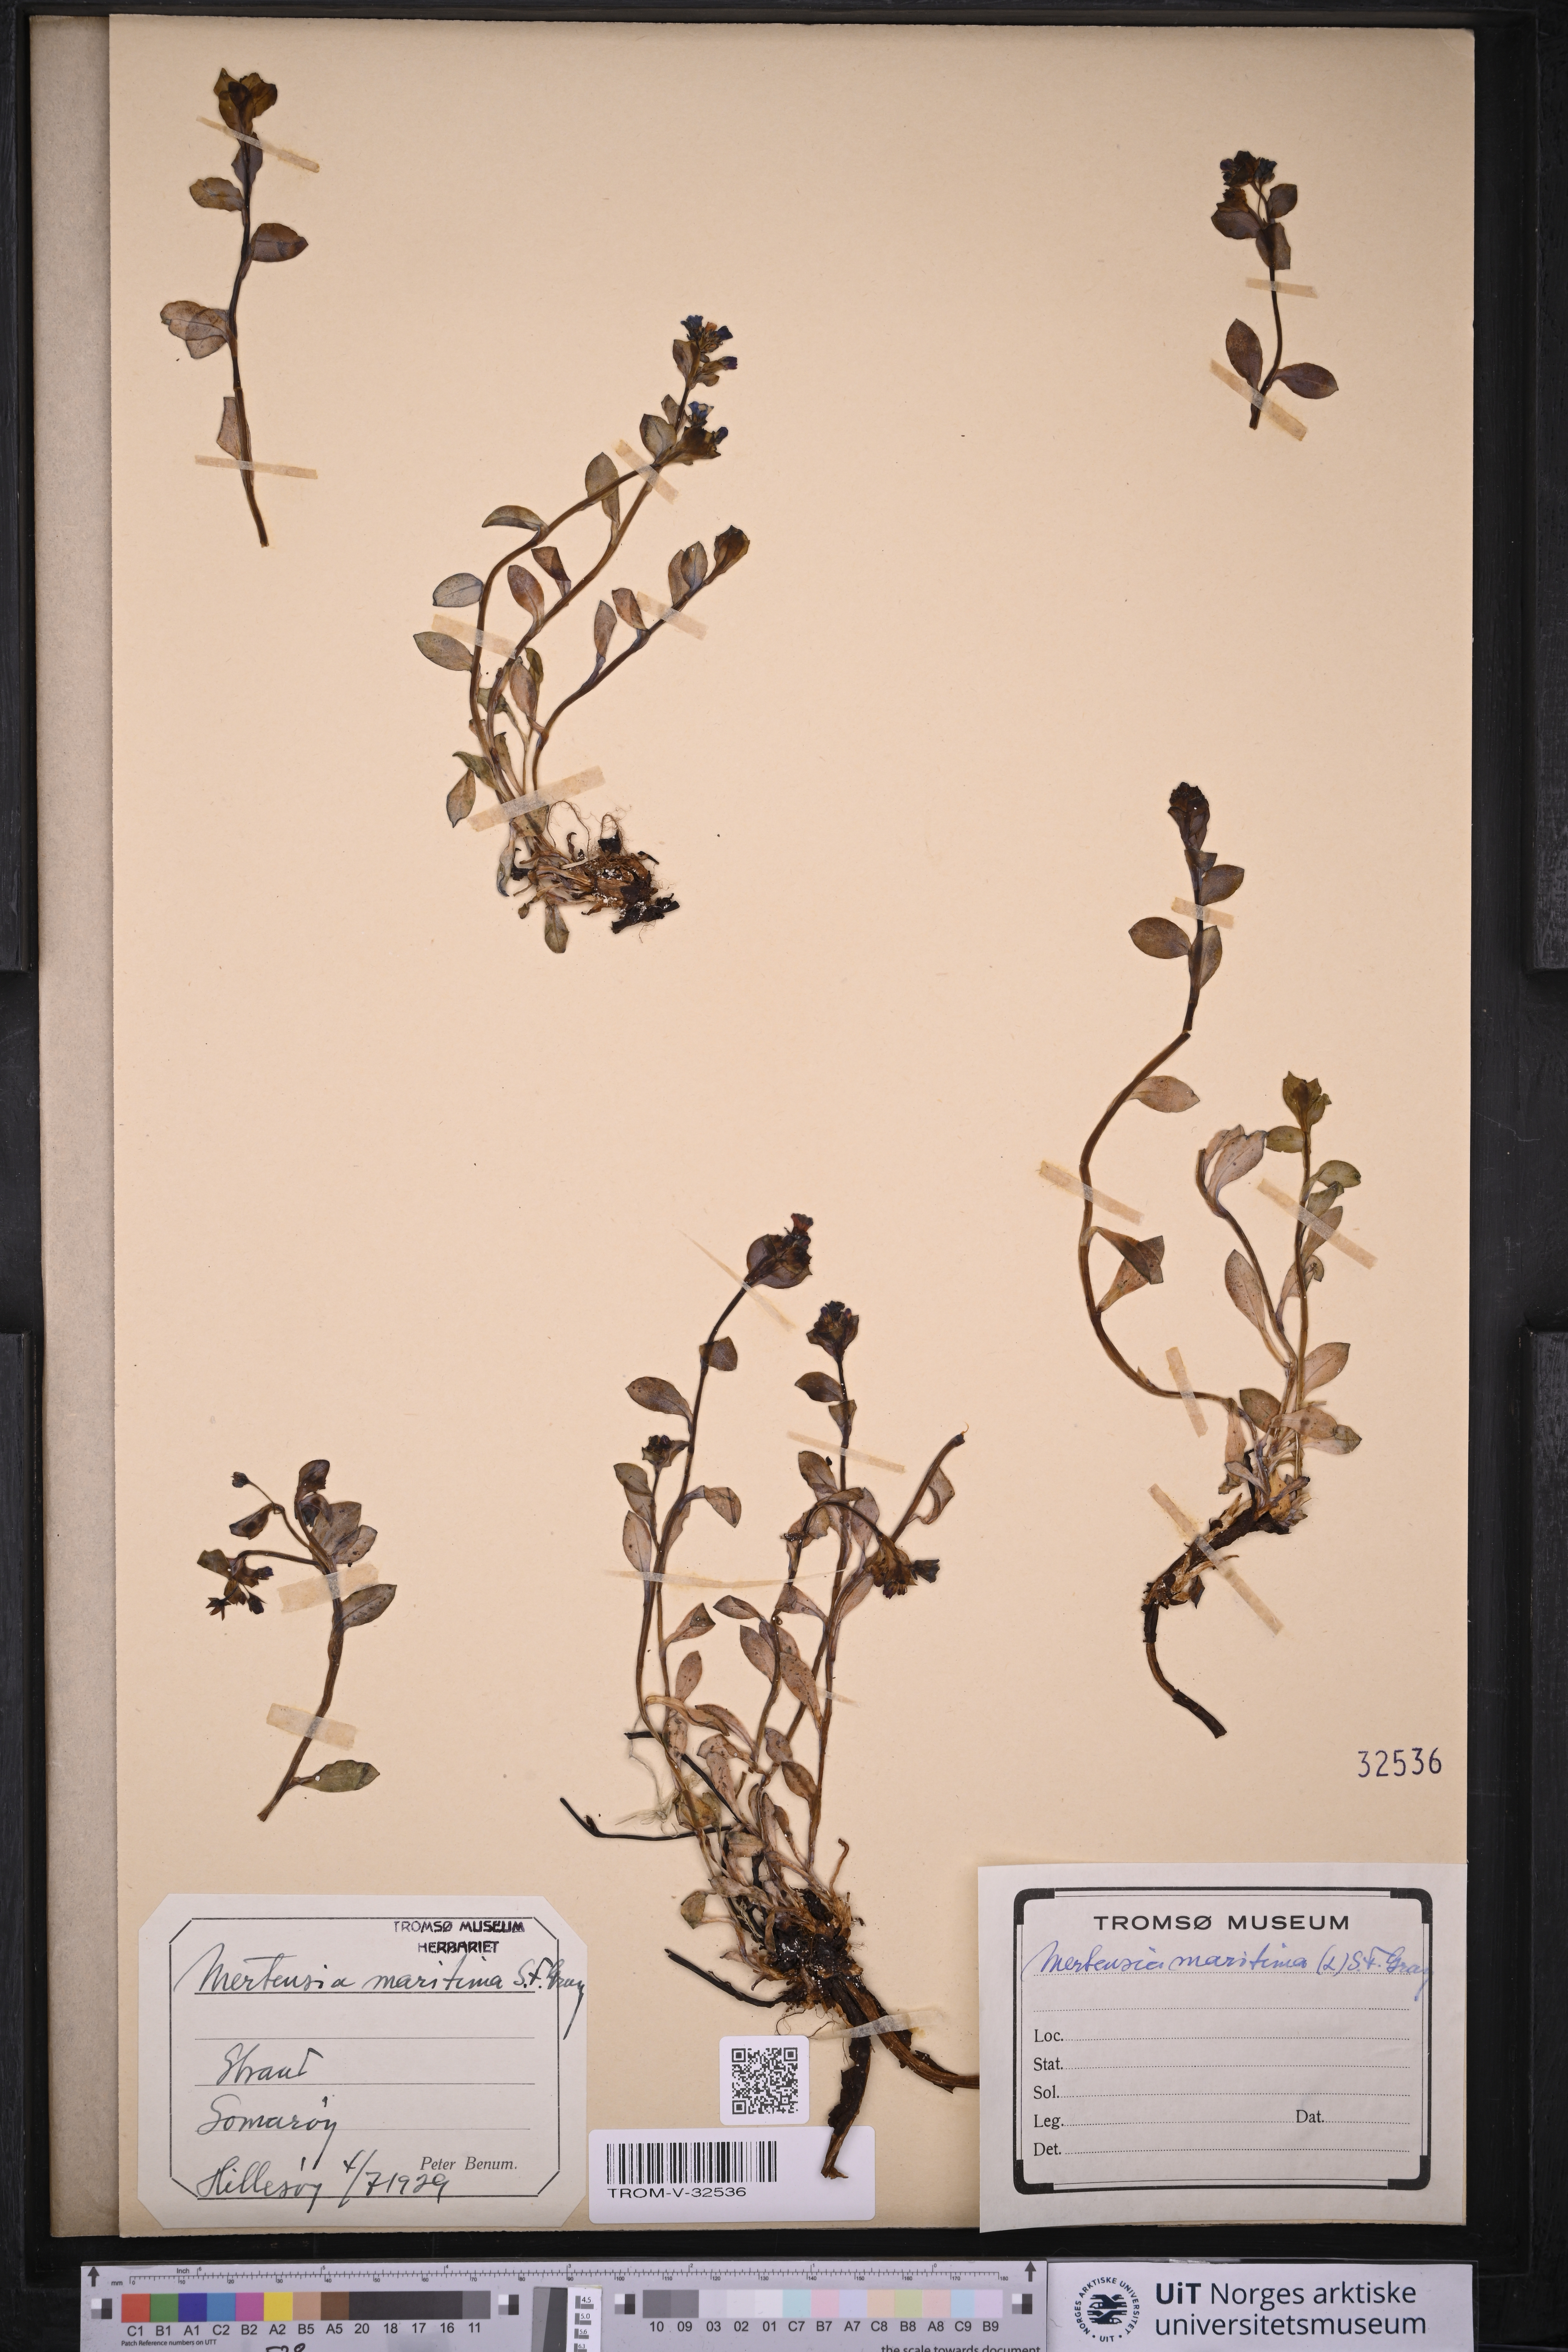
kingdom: Plantae
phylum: Tracheophyta
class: Magnoliopsida
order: Boraginales
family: Boraginaceae
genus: Mertensia
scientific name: Mertensia maritima
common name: Oysterplant
